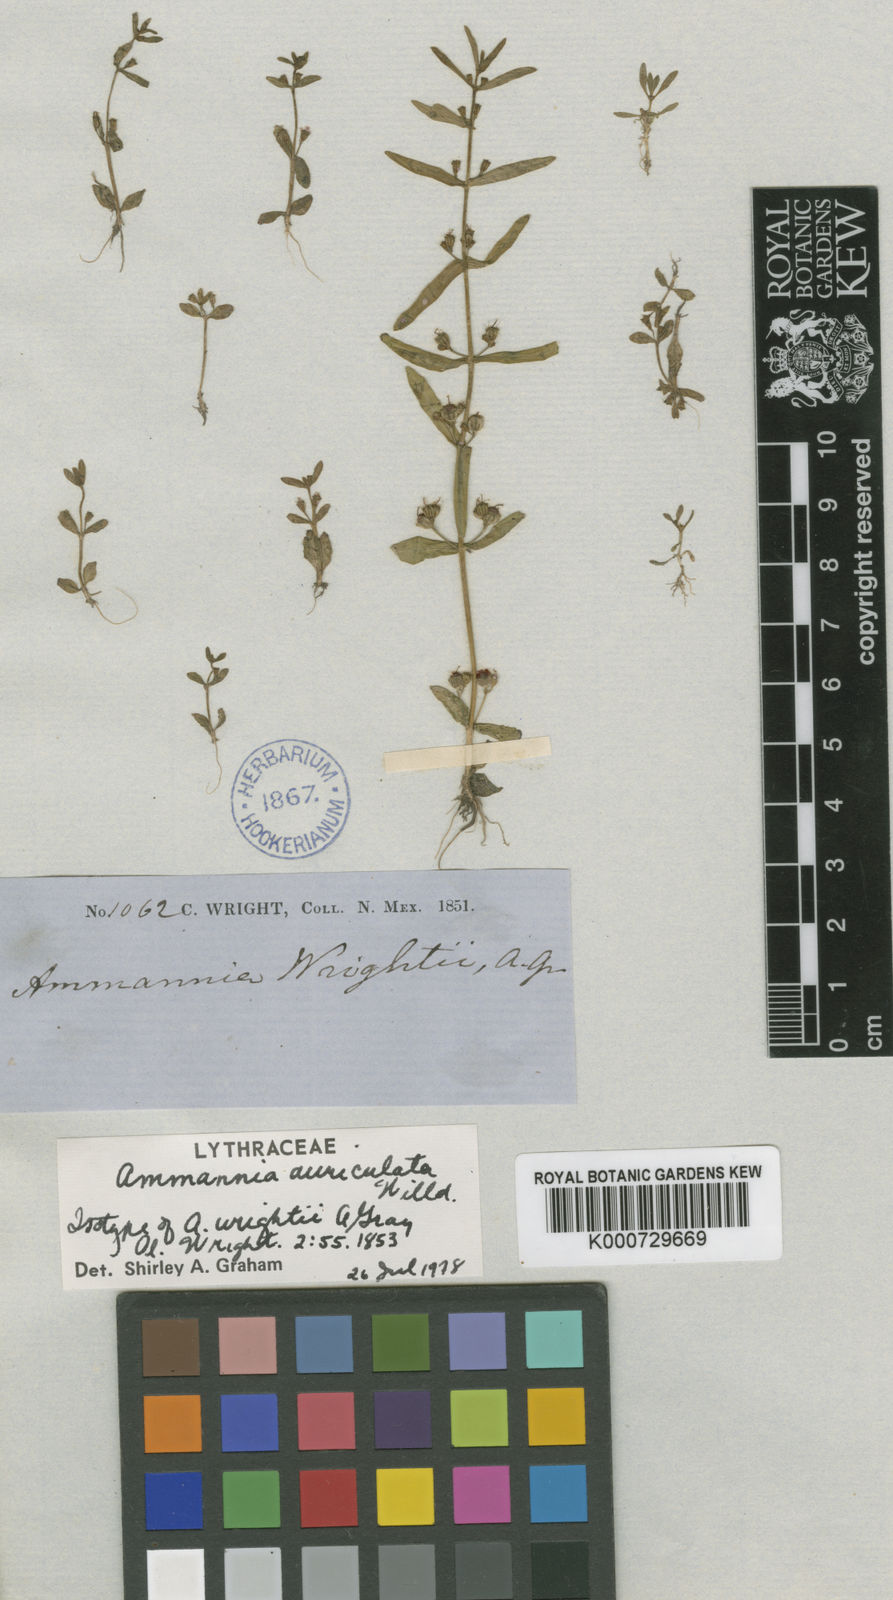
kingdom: Plantae
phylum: Tracheophyta
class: Magnoliopsida
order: Myrtales
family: Lythraceae
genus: Ammannia
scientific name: Ammannia auriculata
